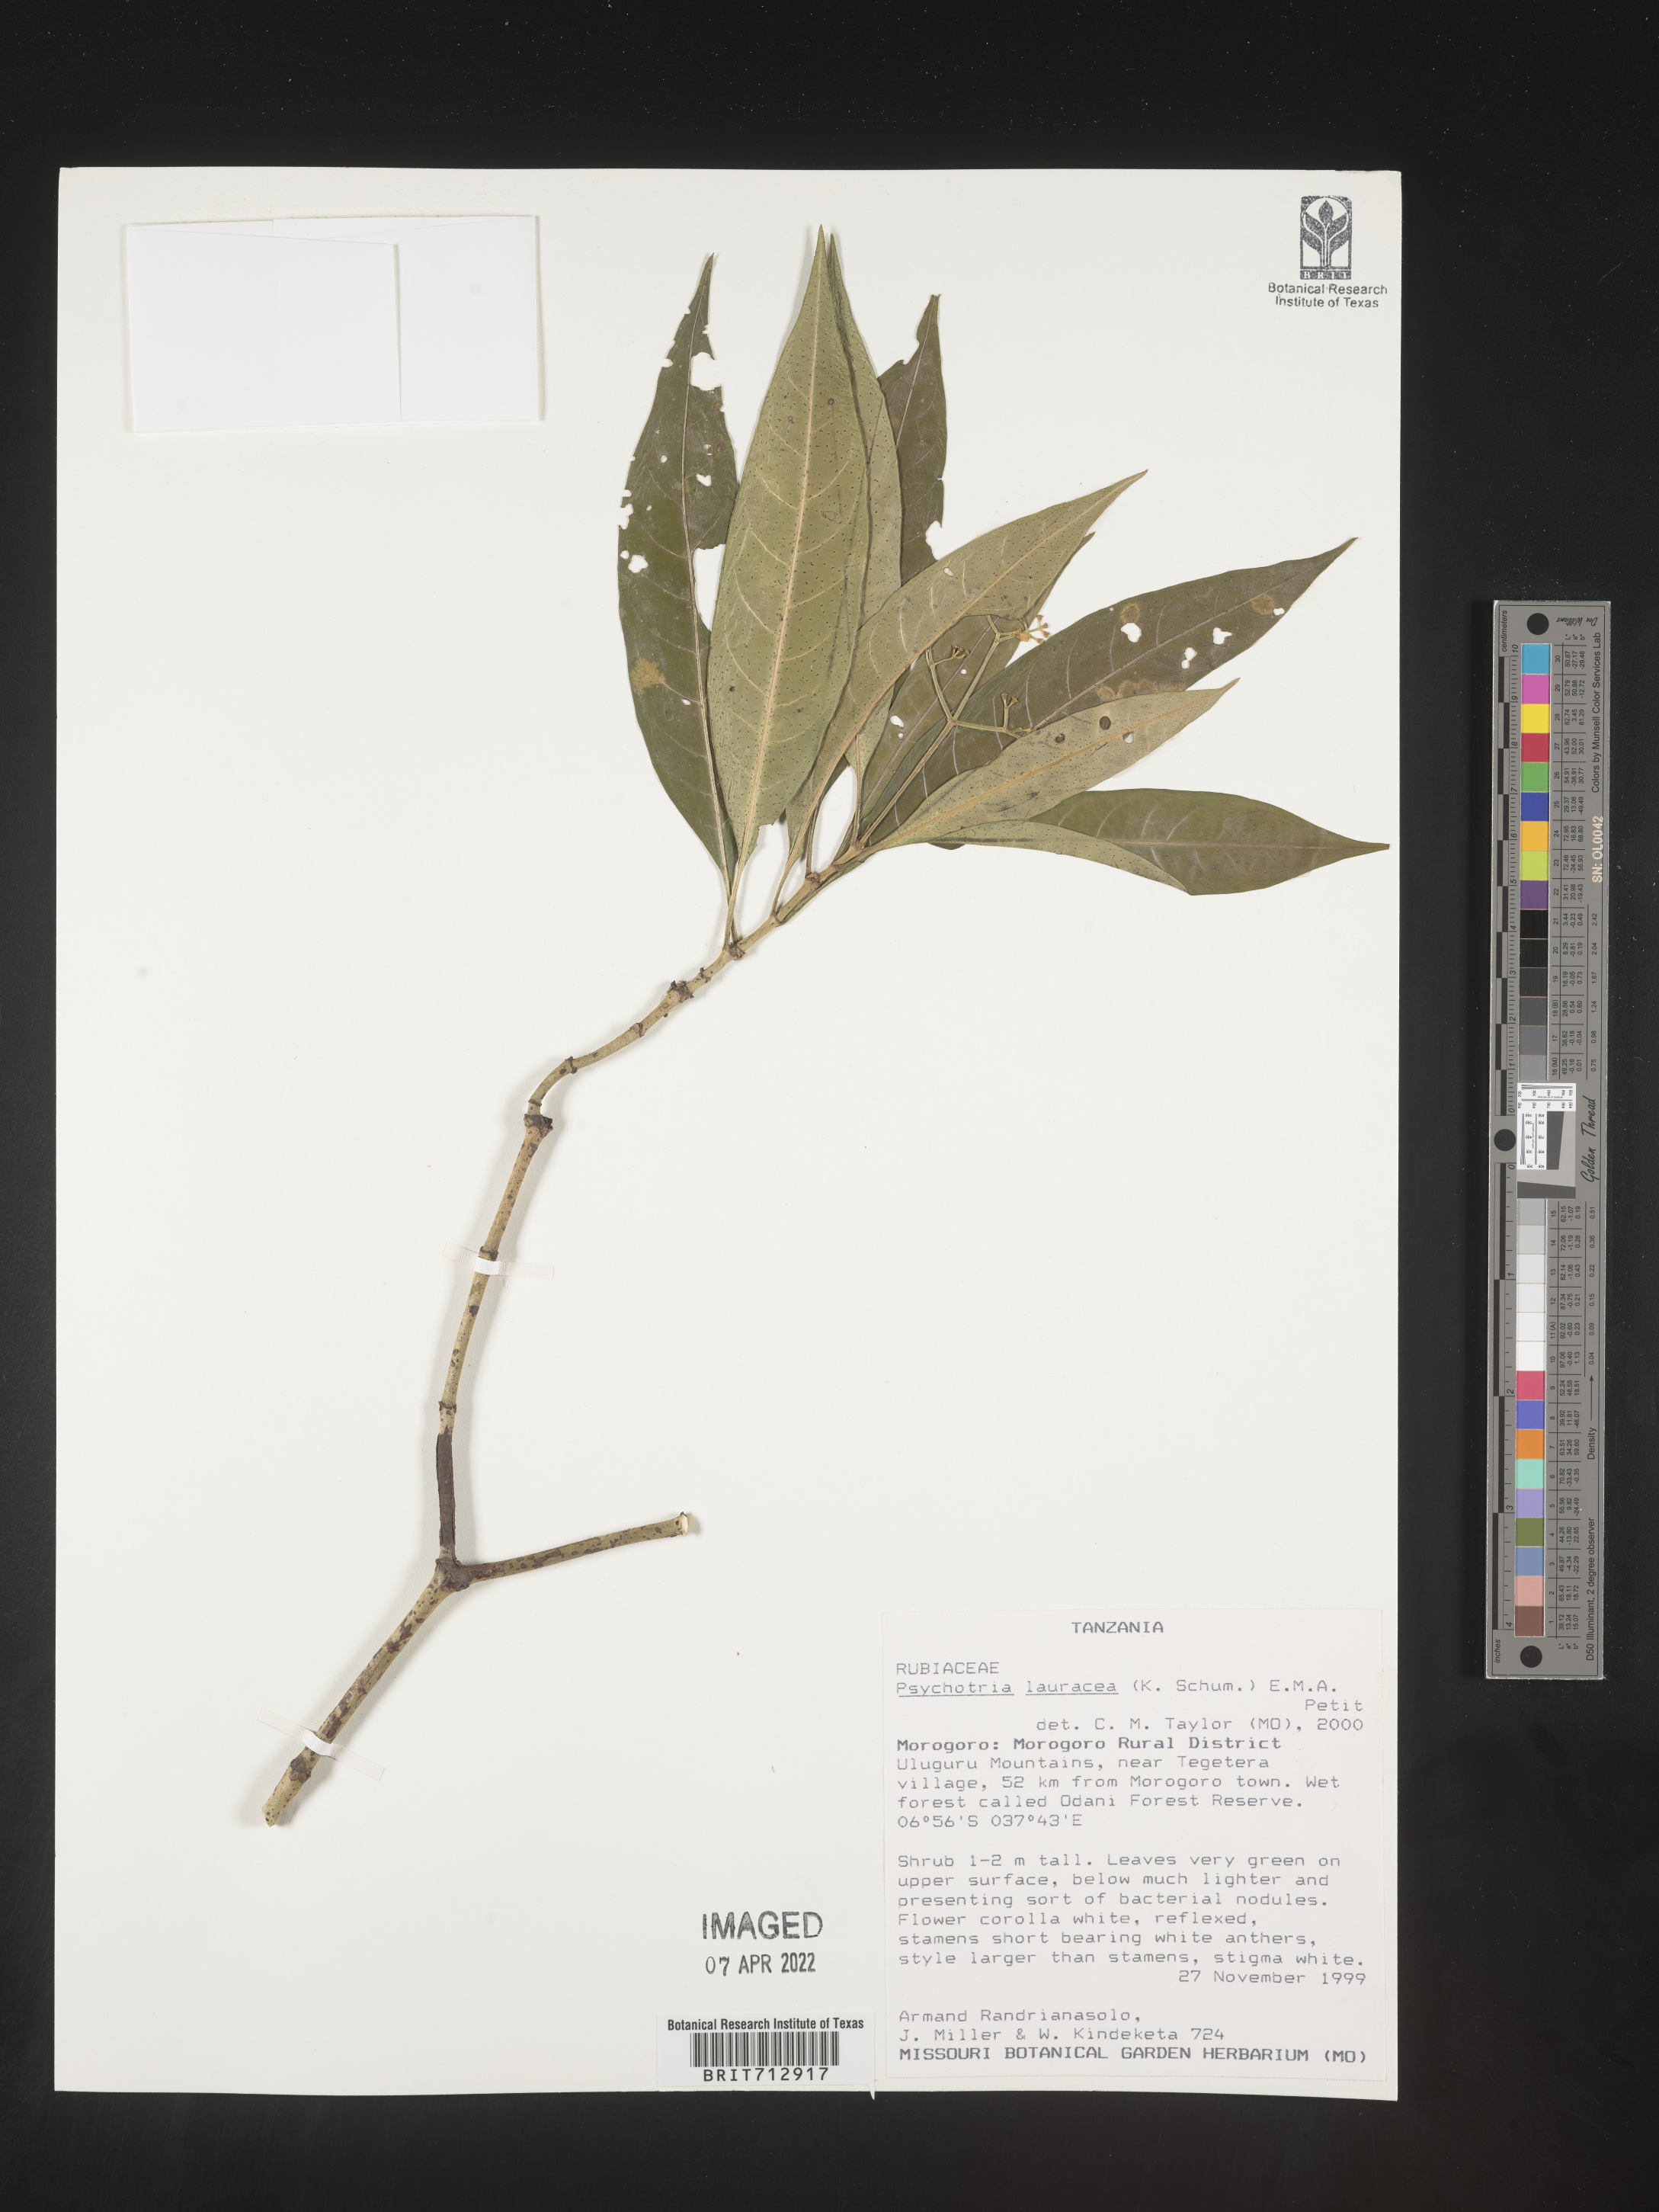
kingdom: Plantae
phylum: Tracheophyta
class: Magnoliopsida
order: Gentianales
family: Rubiaceae
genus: Psychotria
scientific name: Psychotria lauracea
